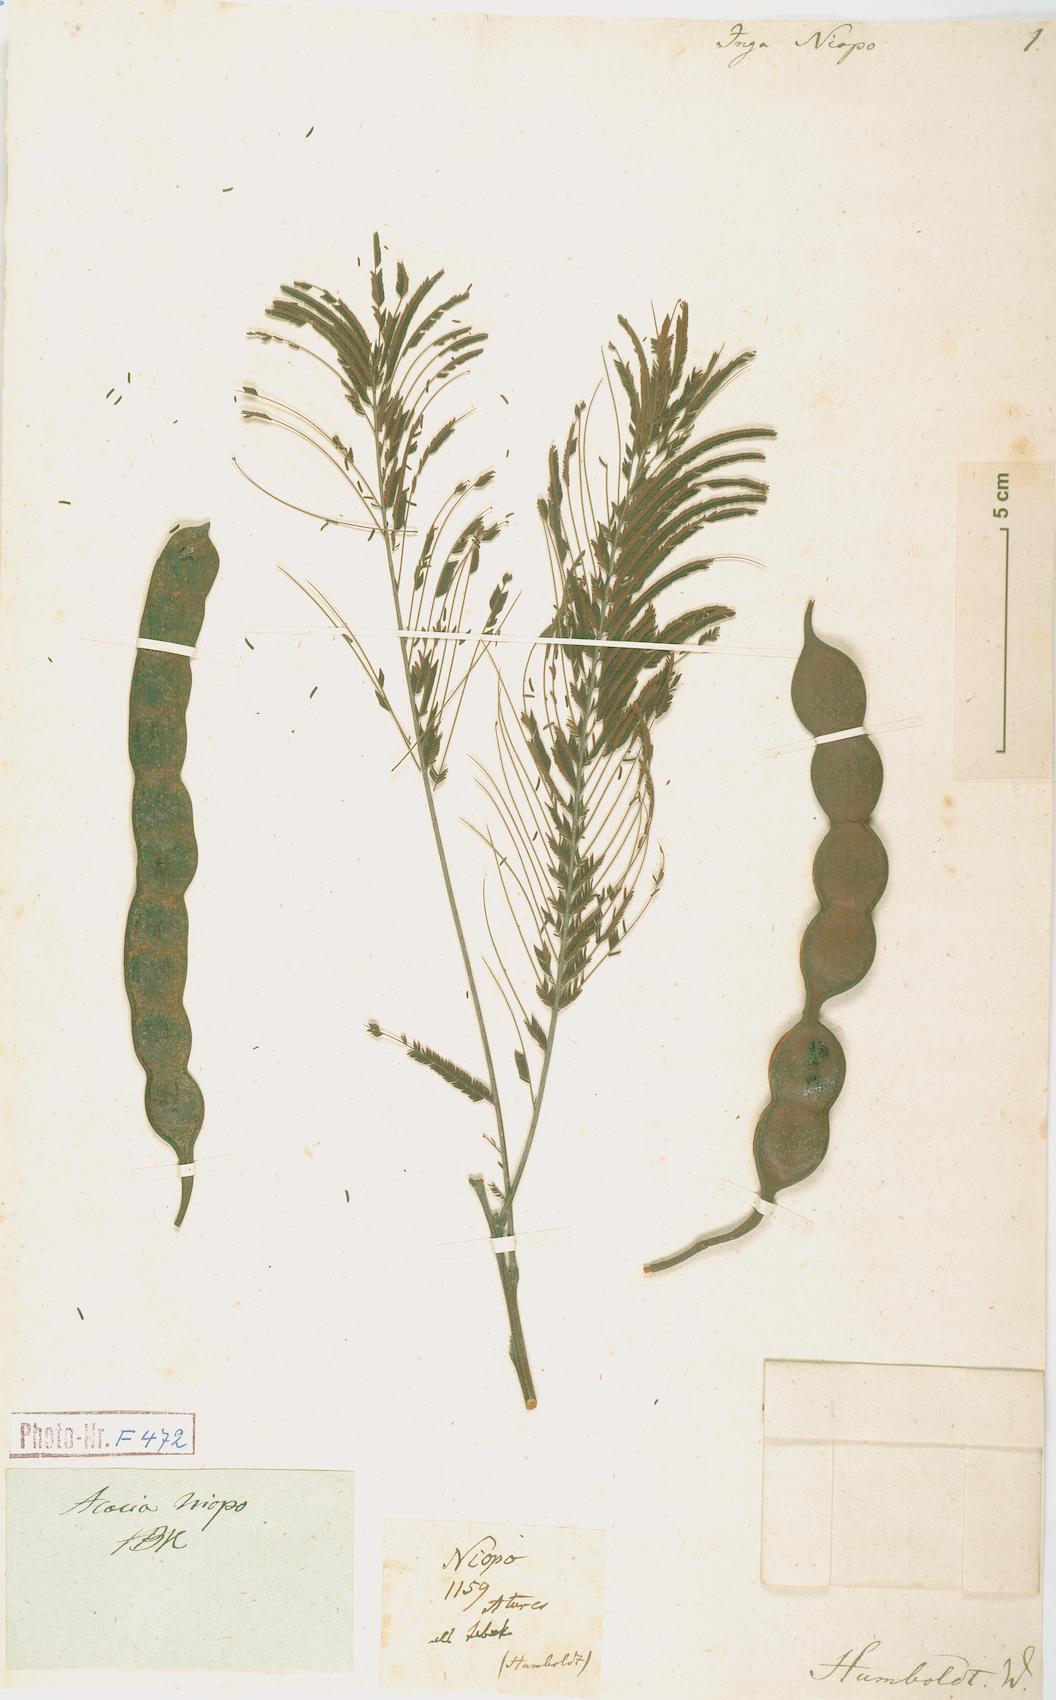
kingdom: Plantae
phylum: Tracheophyta
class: Magnoliopsida
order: Fabales
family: Fabaceae
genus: Anadenanthera
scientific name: Anadenanthera peregrina
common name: Cohoba
